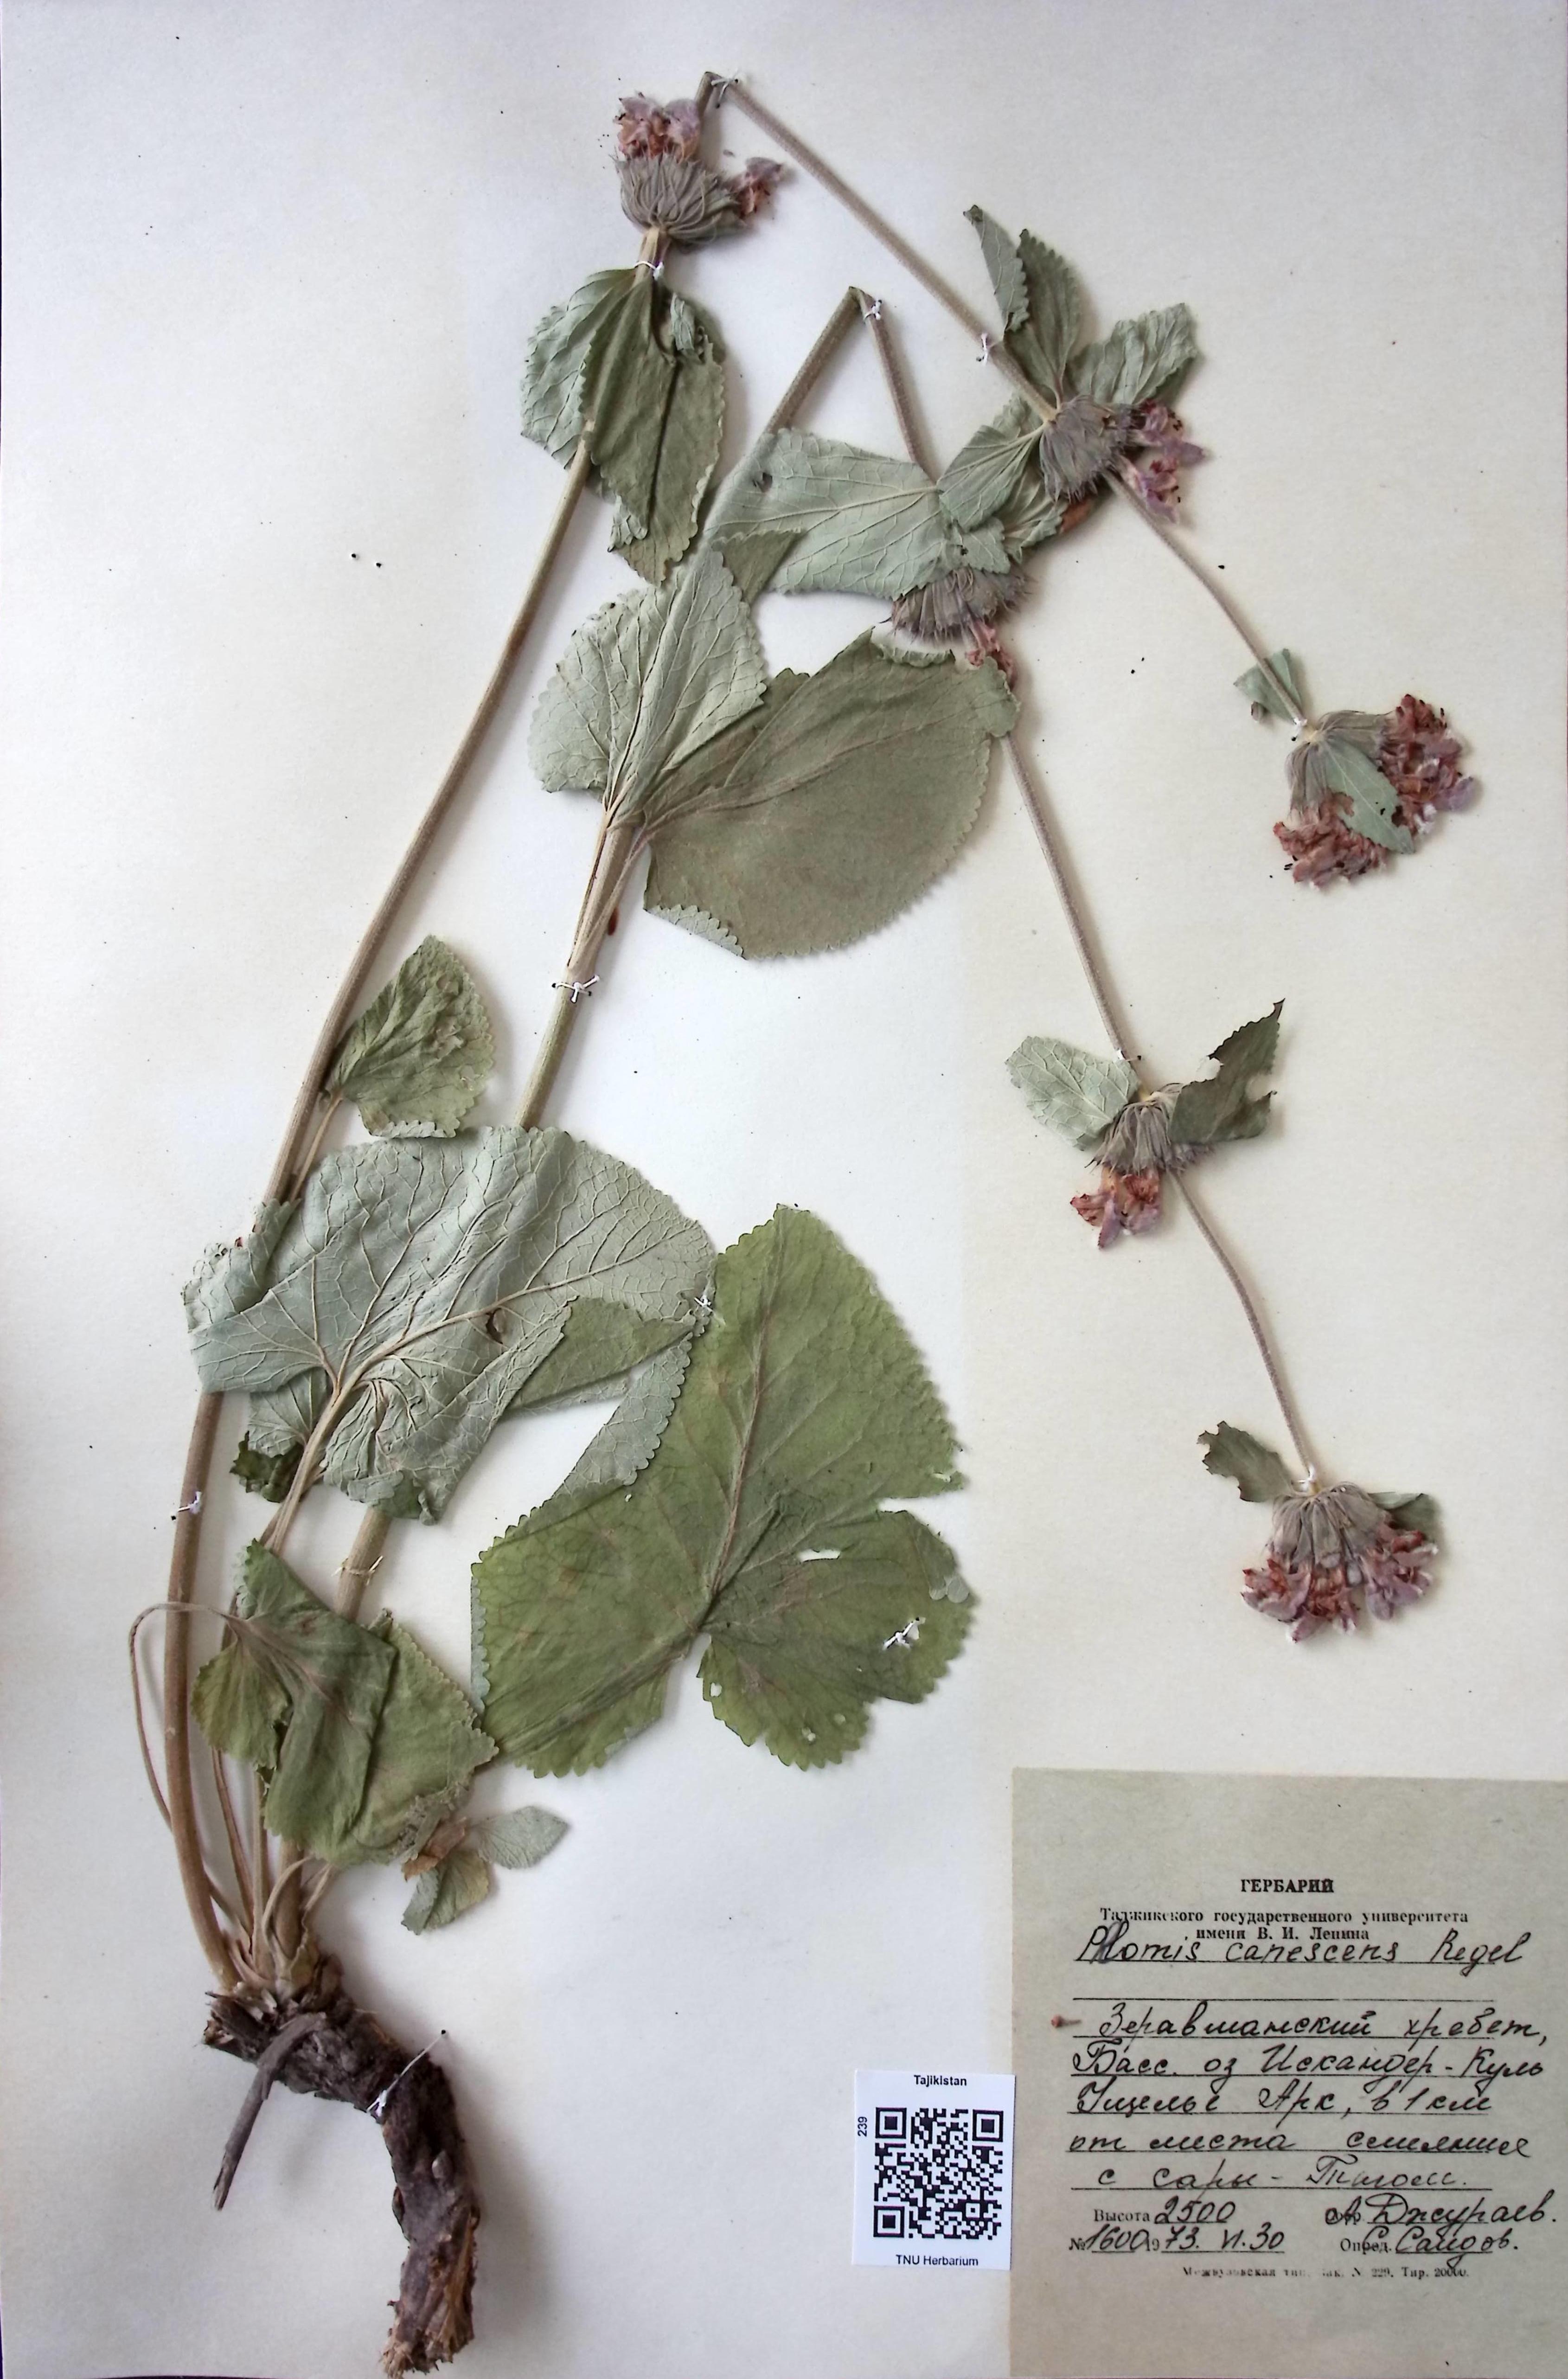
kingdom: Plantae
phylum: Tracheophyta
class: Magnoliopsida
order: Lamiales
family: Lamiaceae
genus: Phlomoides
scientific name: Phlomoides canescens
